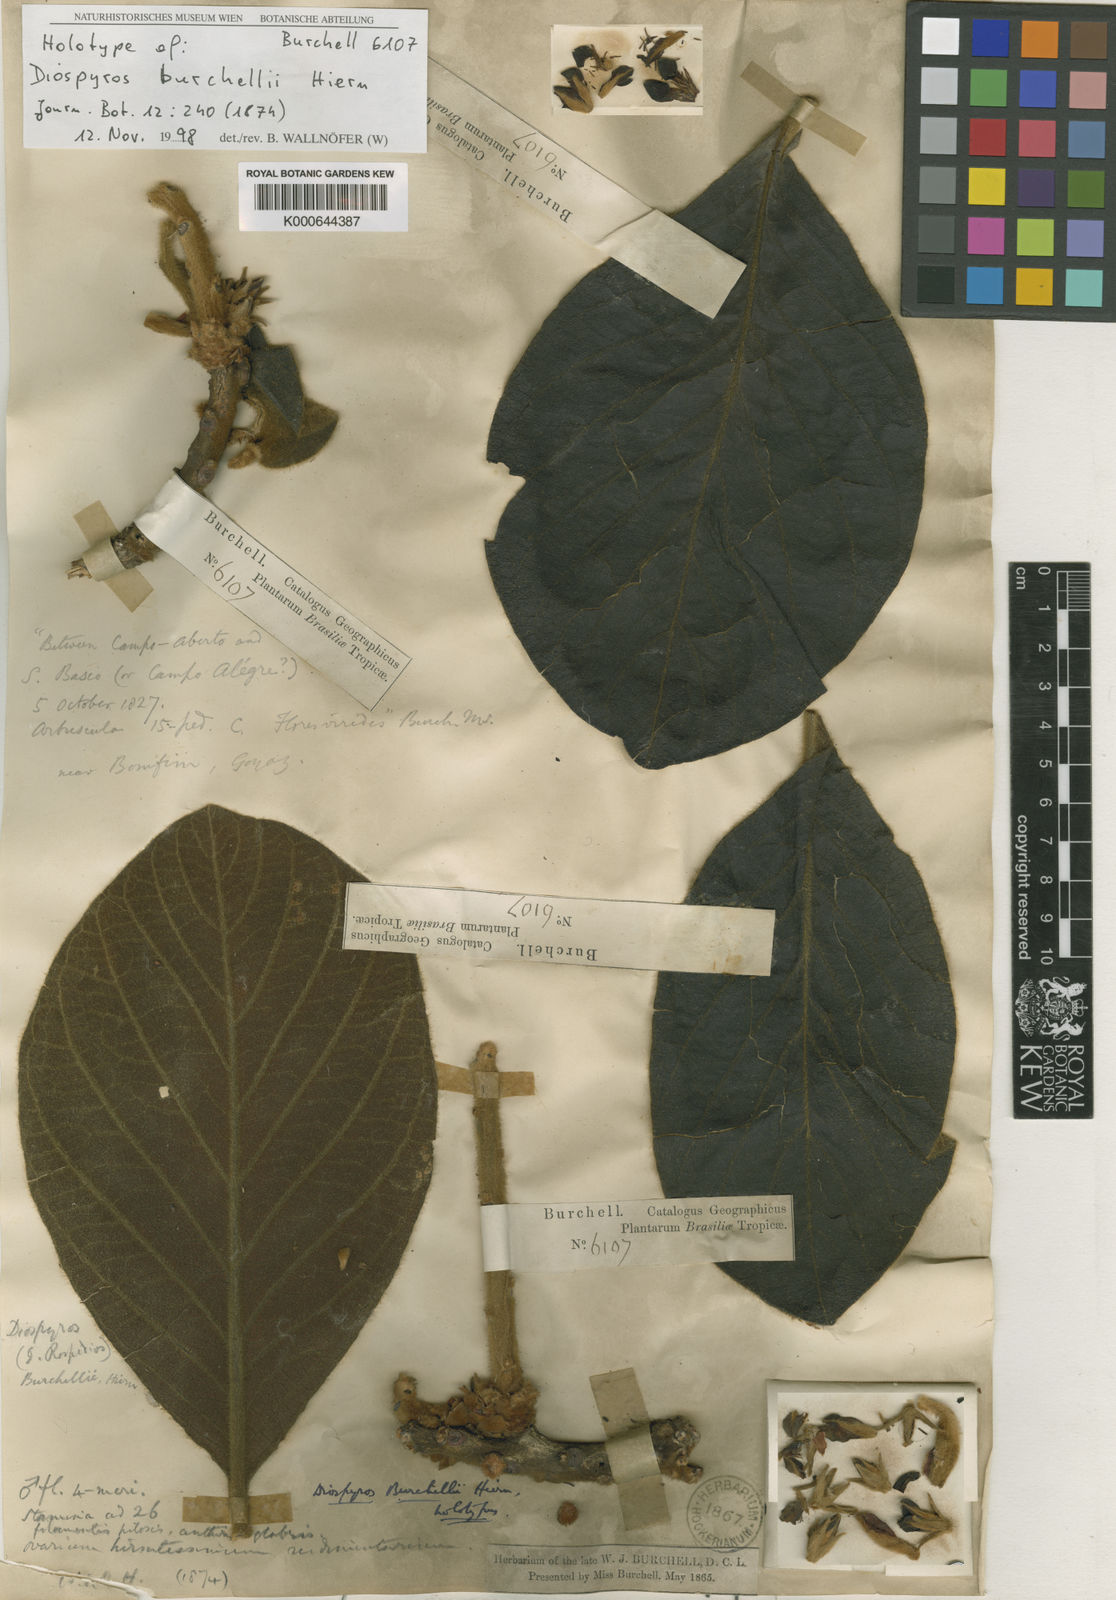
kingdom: Plantae
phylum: Tracheophyta
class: Magnoliopsida
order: Ericales
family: Ebenaceae
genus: Diospyros
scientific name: Diospyros lasiocalyx
